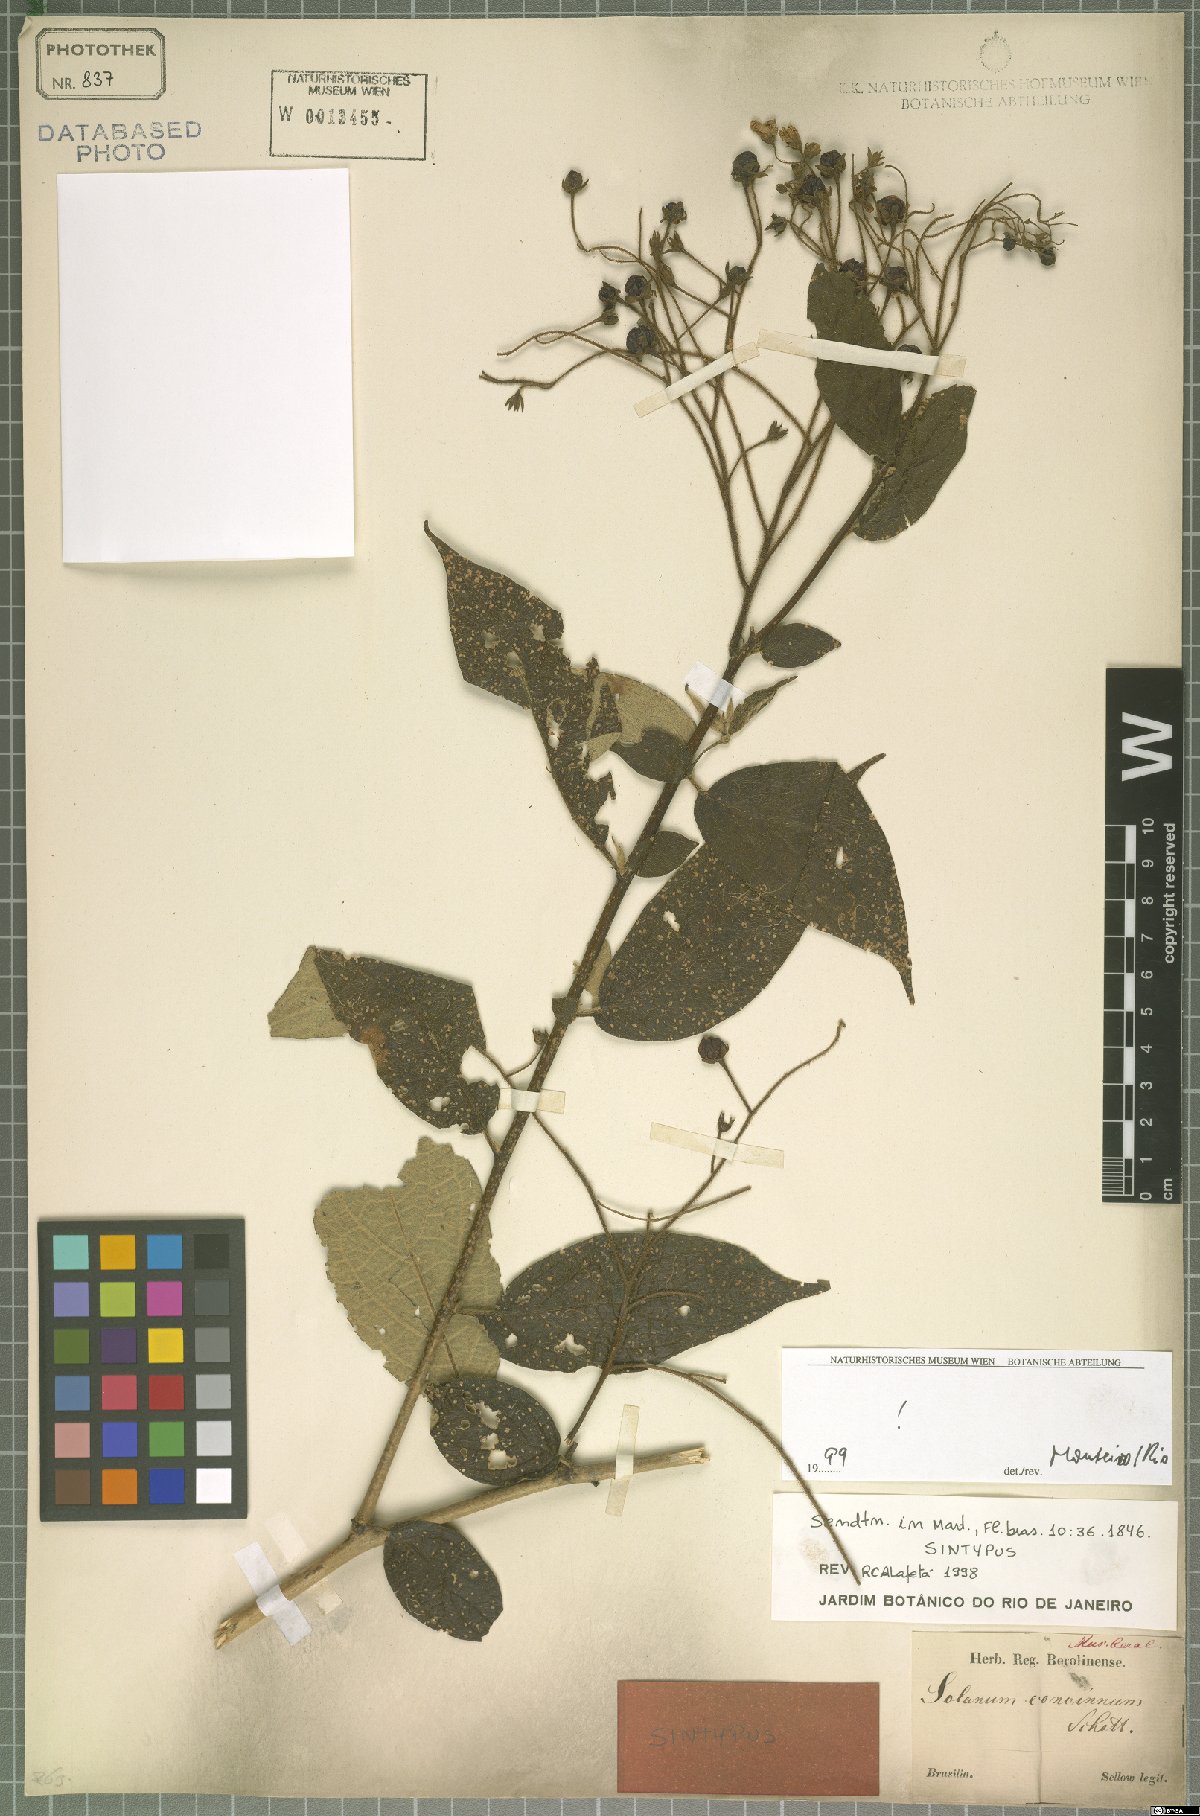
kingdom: Plantae
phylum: Tracheophyta
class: Magnoliopsida
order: Solanales
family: Solanaceae
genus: Solanum
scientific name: Solanum concinnum
